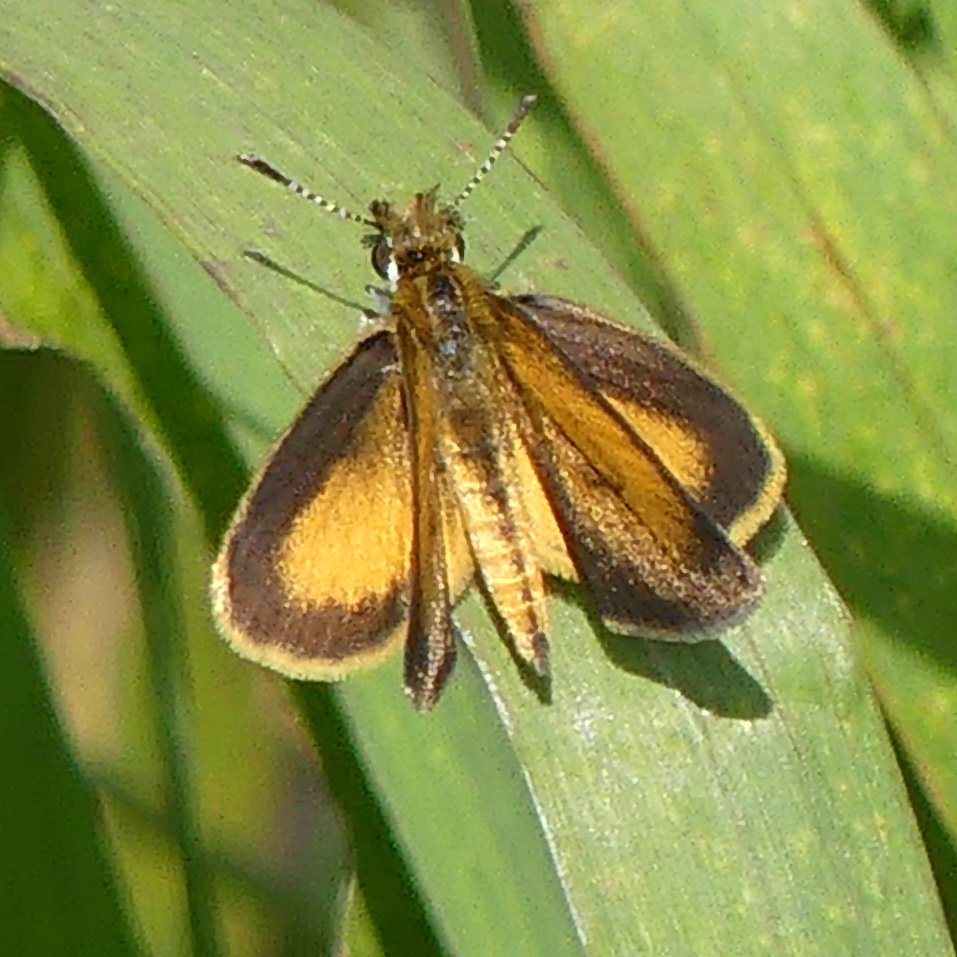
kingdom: Animalia
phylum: Arthropoda
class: Insecta
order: Lepidoptera
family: Hesperiidae
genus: Ancyloxypha
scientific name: Ancyloxypha numitor
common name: Least Skipper
